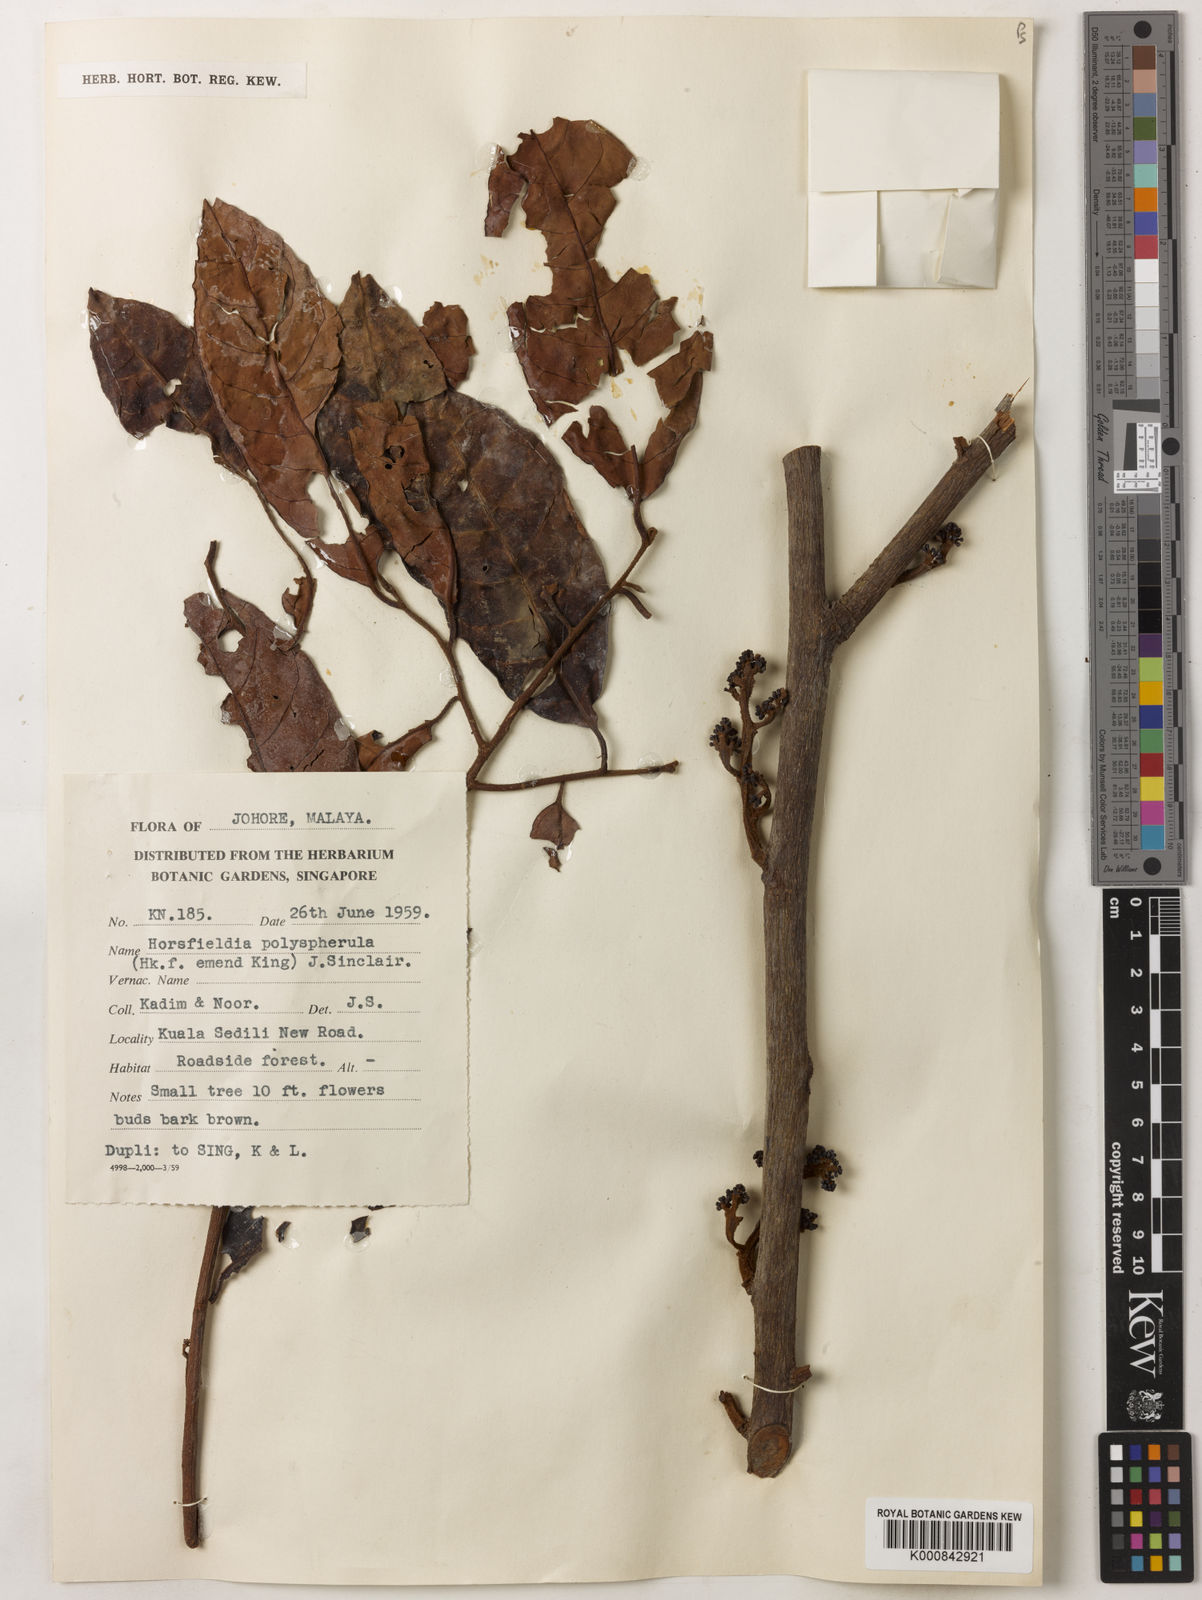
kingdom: Plantae
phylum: Tracheophyta
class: Magnoliopsida
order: Magnoliales
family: Myristicaceae
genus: Horsfieldia
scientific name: Horsfieldia
